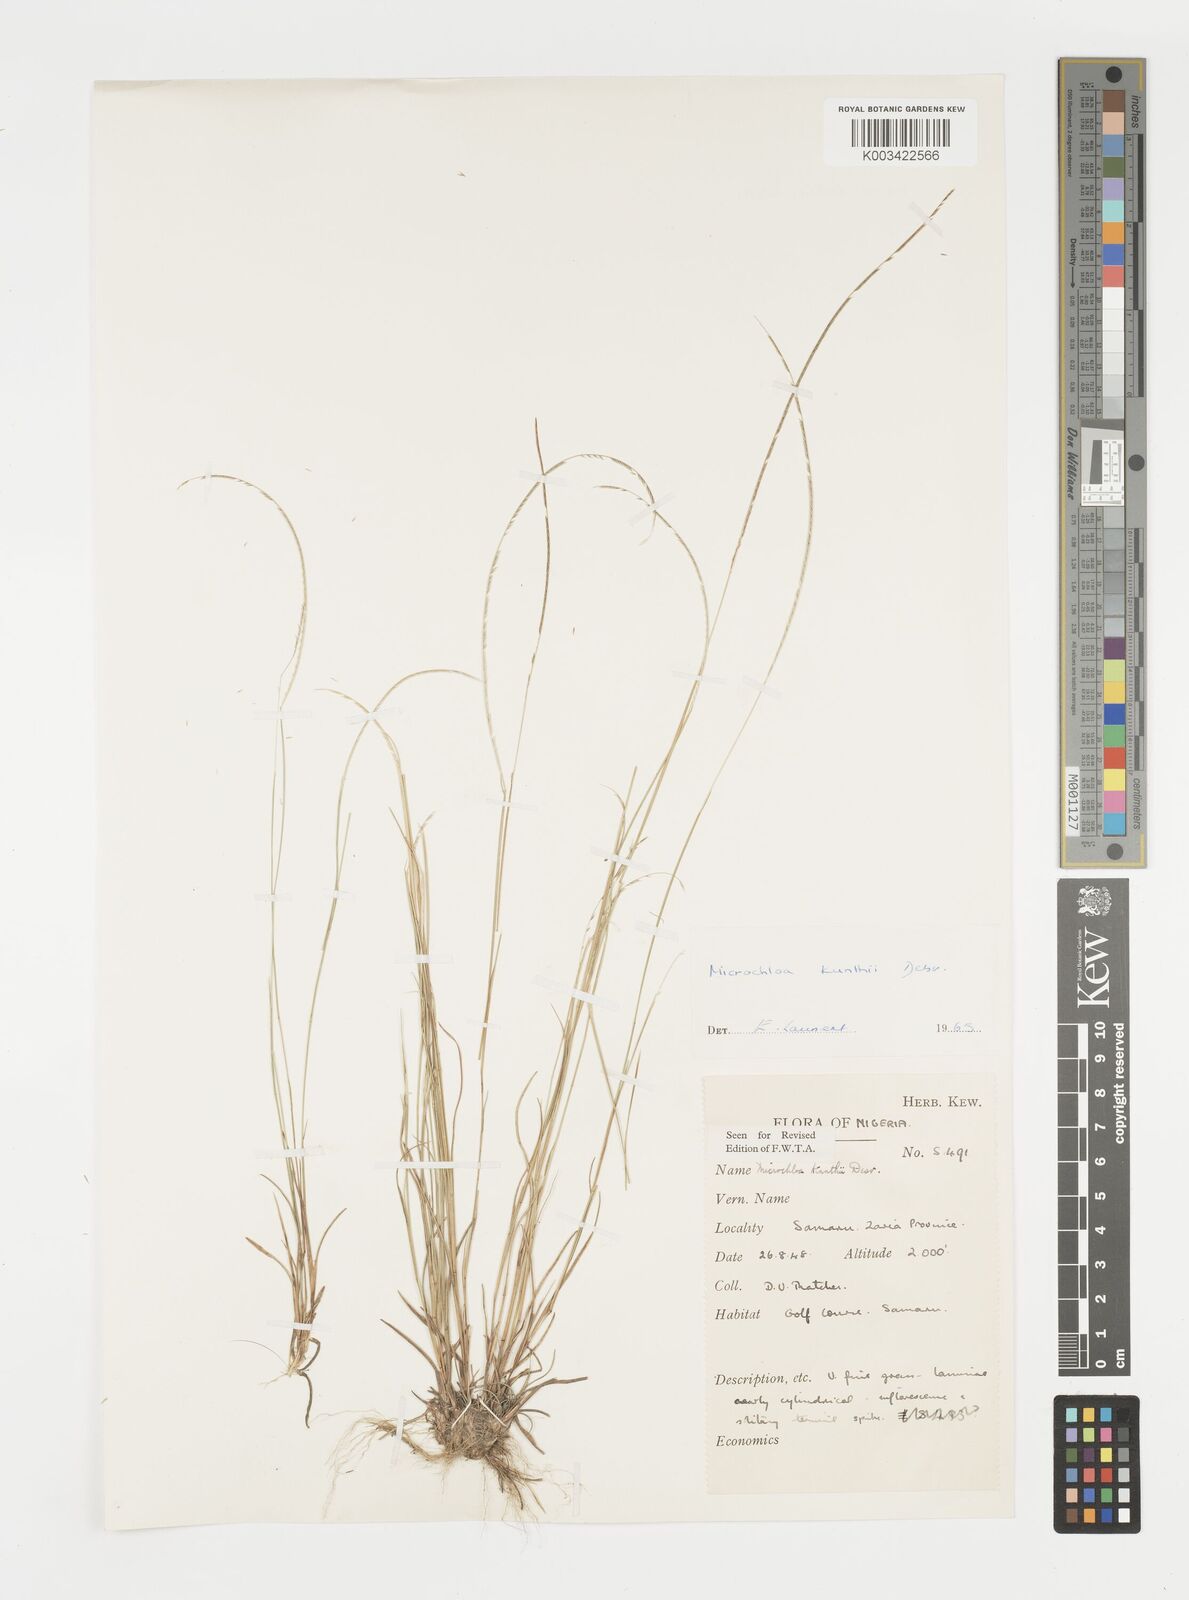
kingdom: Plantae
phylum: Tracheophyta
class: Liliopsida
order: Poales
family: Poaceae
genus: Microchloa
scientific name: Microchloa kunthii
